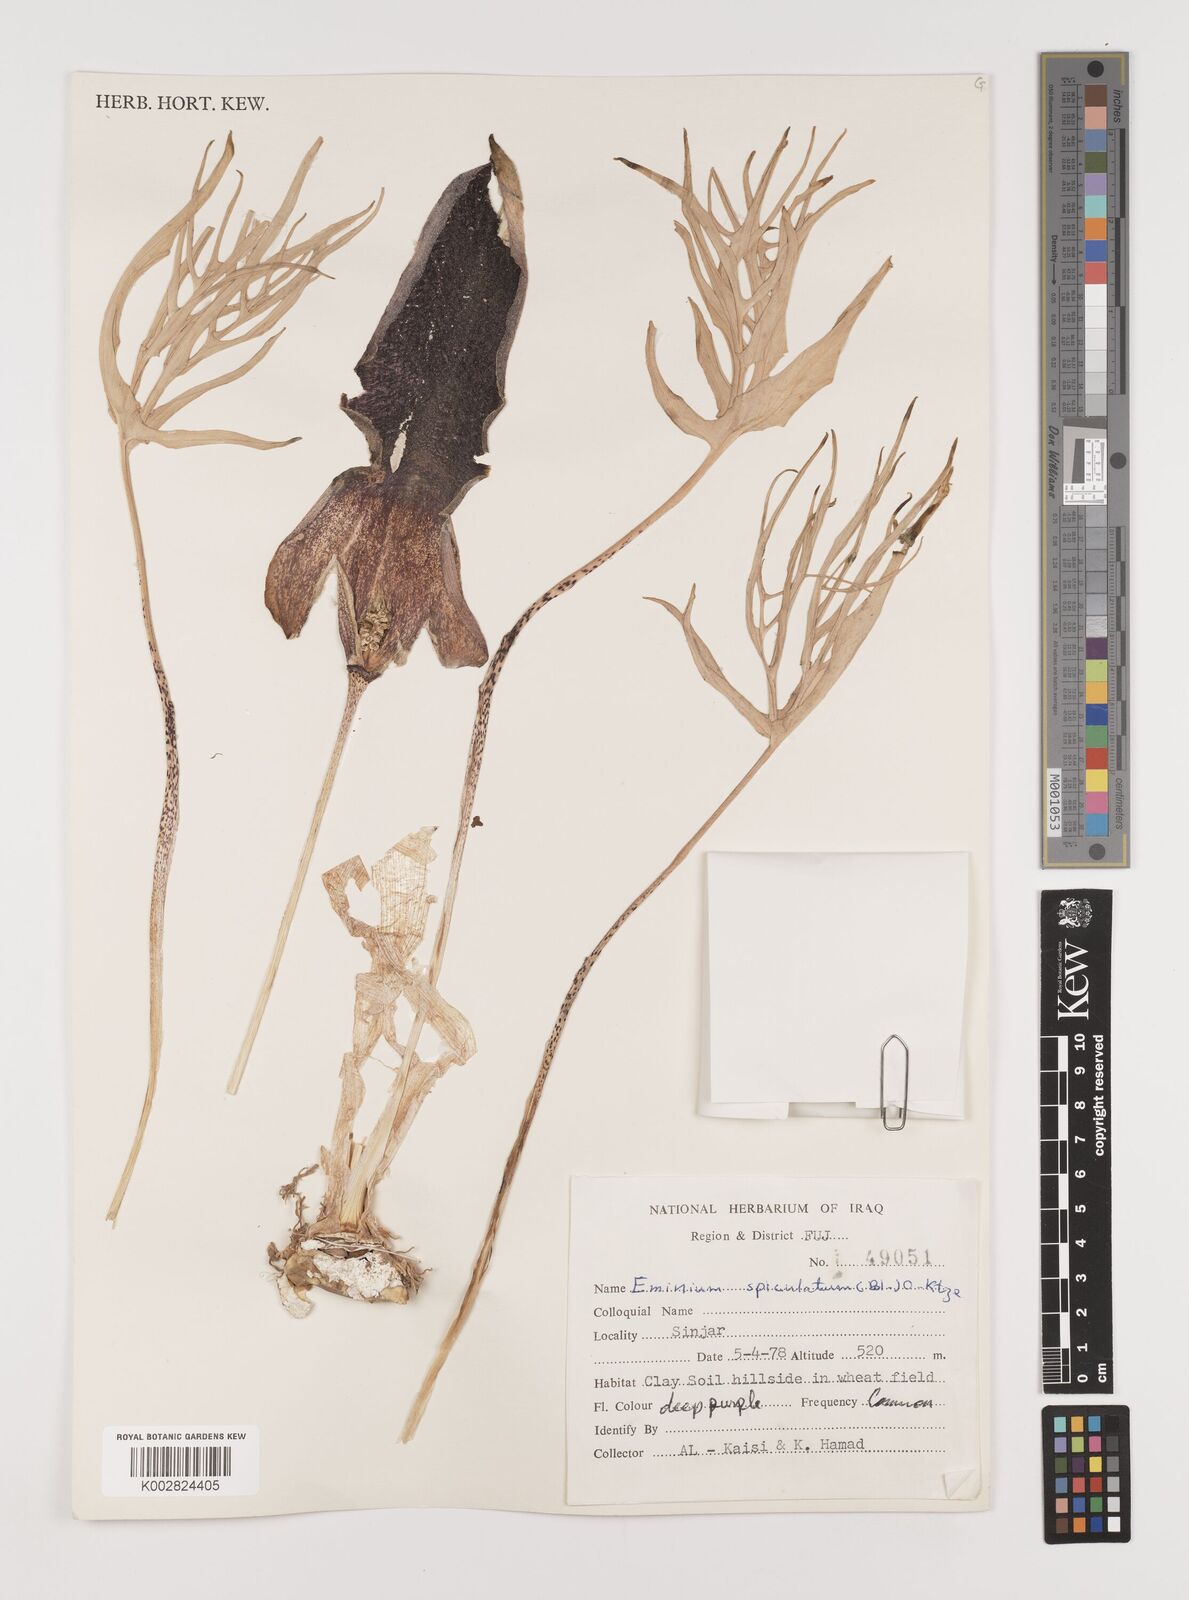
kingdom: Plantae
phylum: Tracheophyta
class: Liliopsida
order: Alismatales
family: Araceae
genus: Eminium
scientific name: Eminium spiculatum
